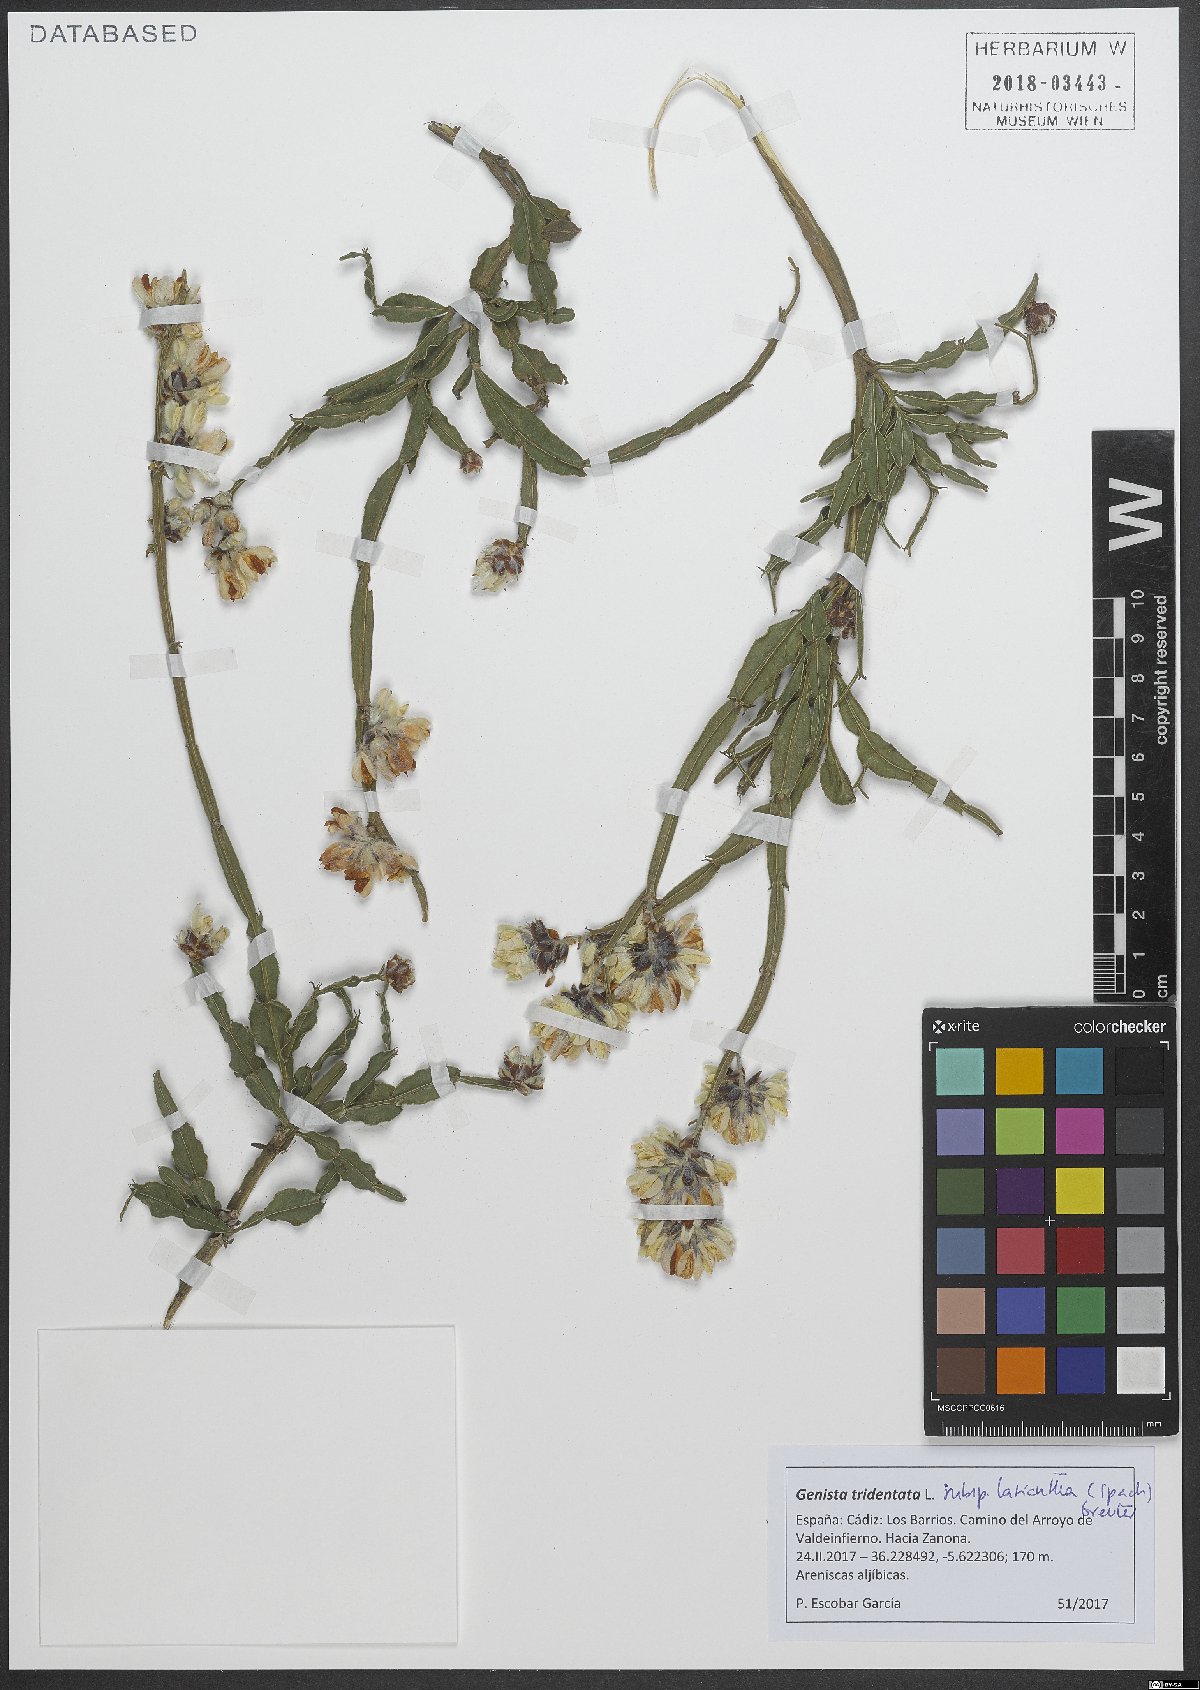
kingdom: Plantae
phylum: Tracheophyta
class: Magnoliopsida
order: Fabales
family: Fabaceae
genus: Genista
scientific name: Genista tridentata
